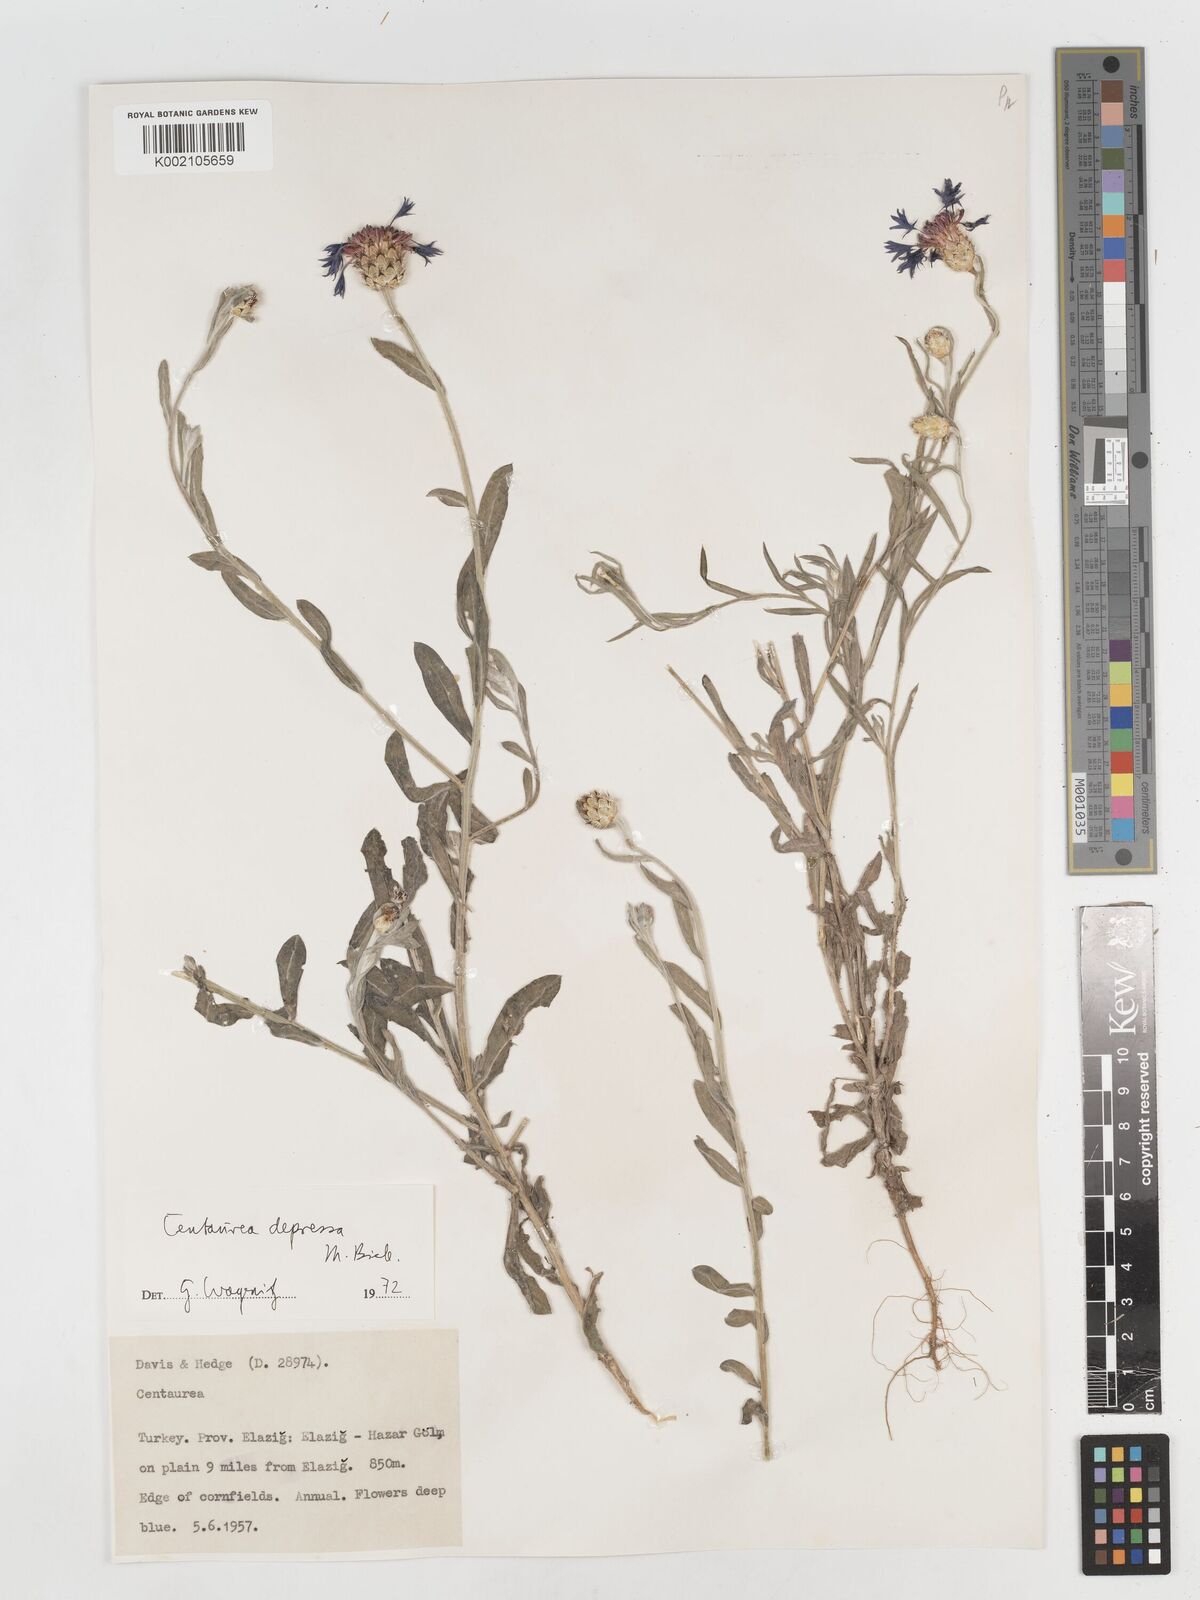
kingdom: Plantae
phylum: Tracheophyta
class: Magnoliopsida
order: Asterales
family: Asteraceae
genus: Centaurea
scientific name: Centaurea depressa
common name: Iranian knapweed
